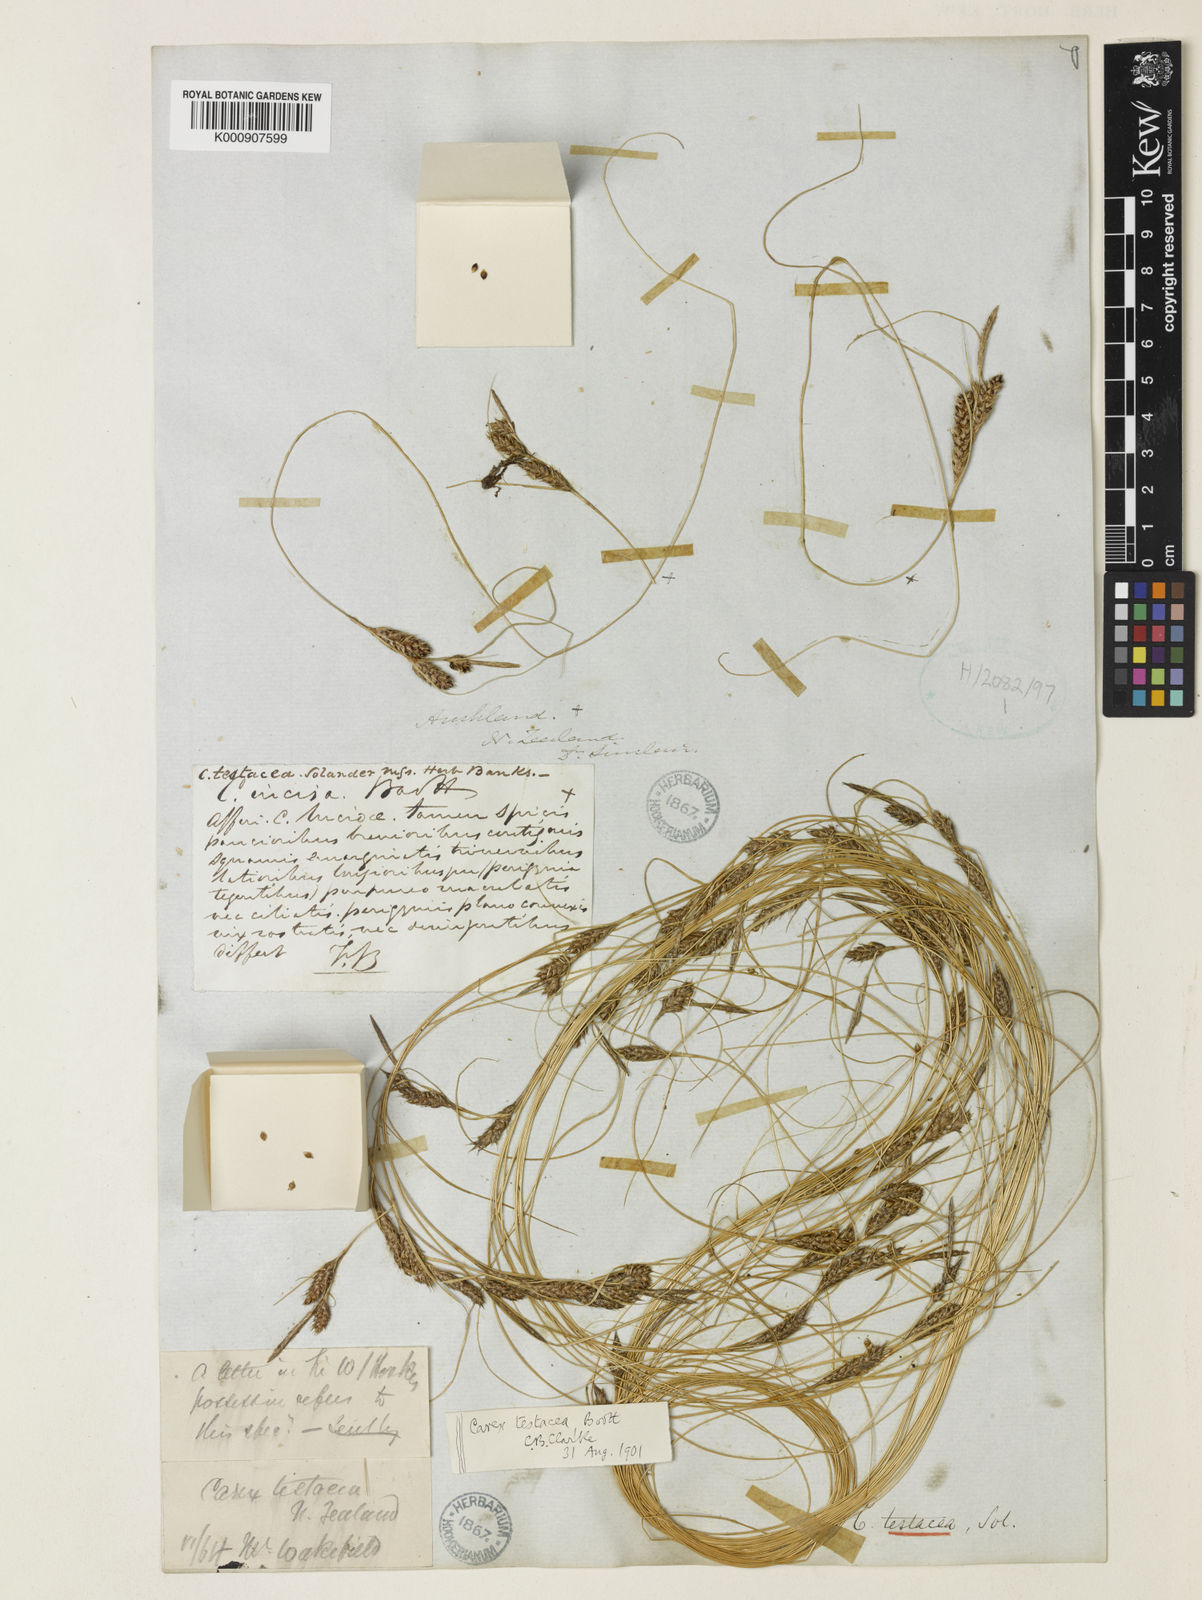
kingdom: Plantae
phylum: Tracheophyta
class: Liliopsida
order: Poales
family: Cyperaceae
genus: Carex
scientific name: Carex testacea
